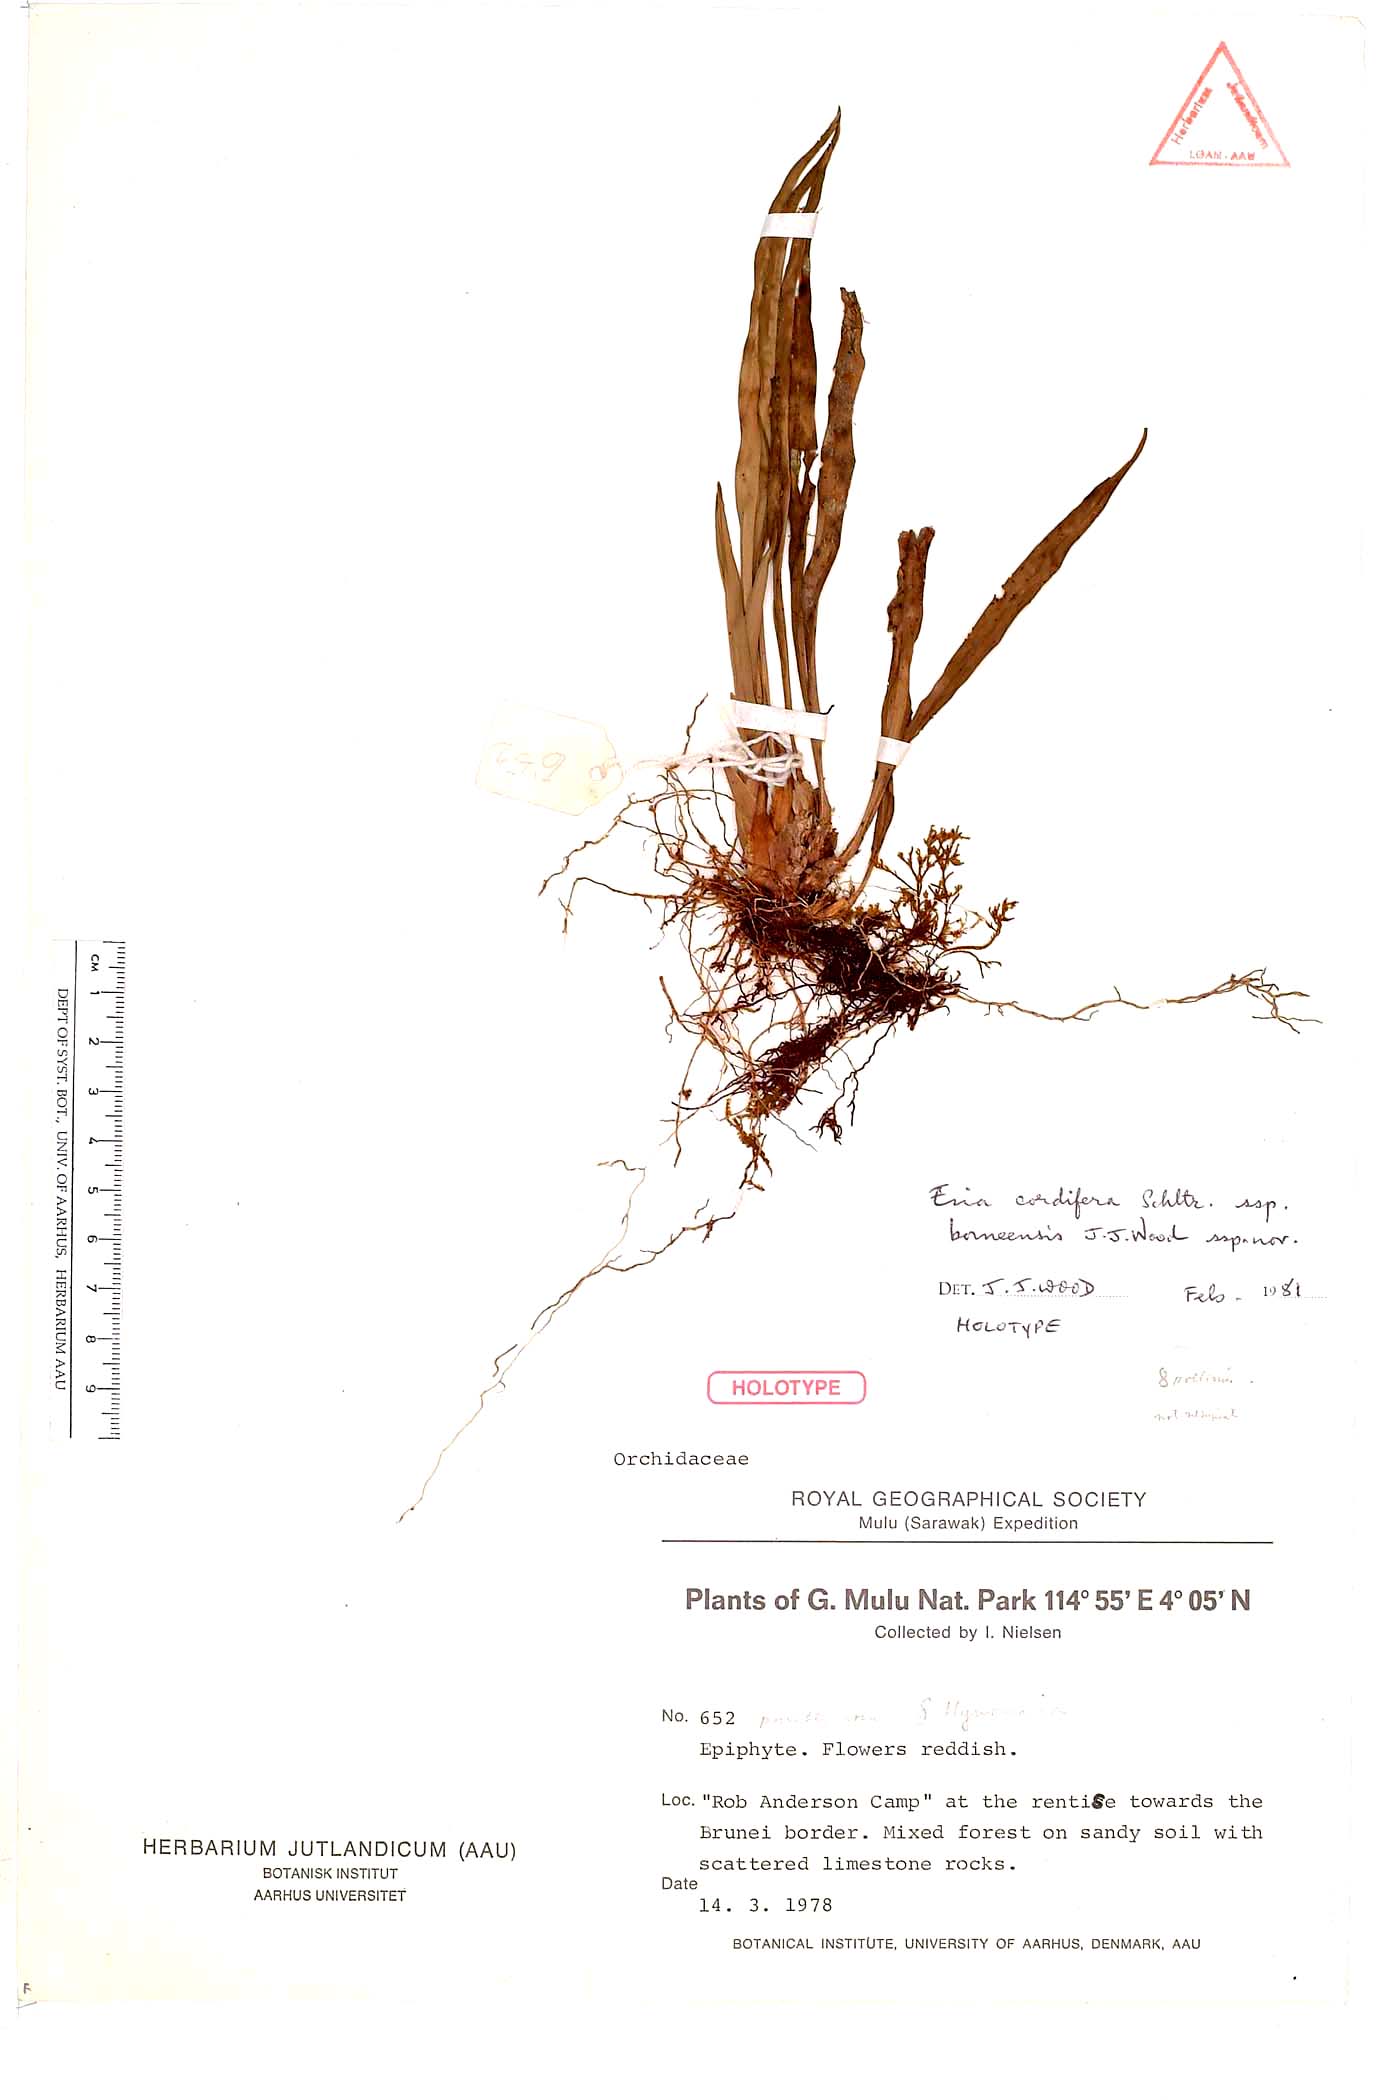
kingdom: Plantae
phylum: Tracheophyta
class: Liliopsida
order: Asparagales
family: Orchidaceae
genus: Bryobium
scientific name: Bryobium cordiferum
